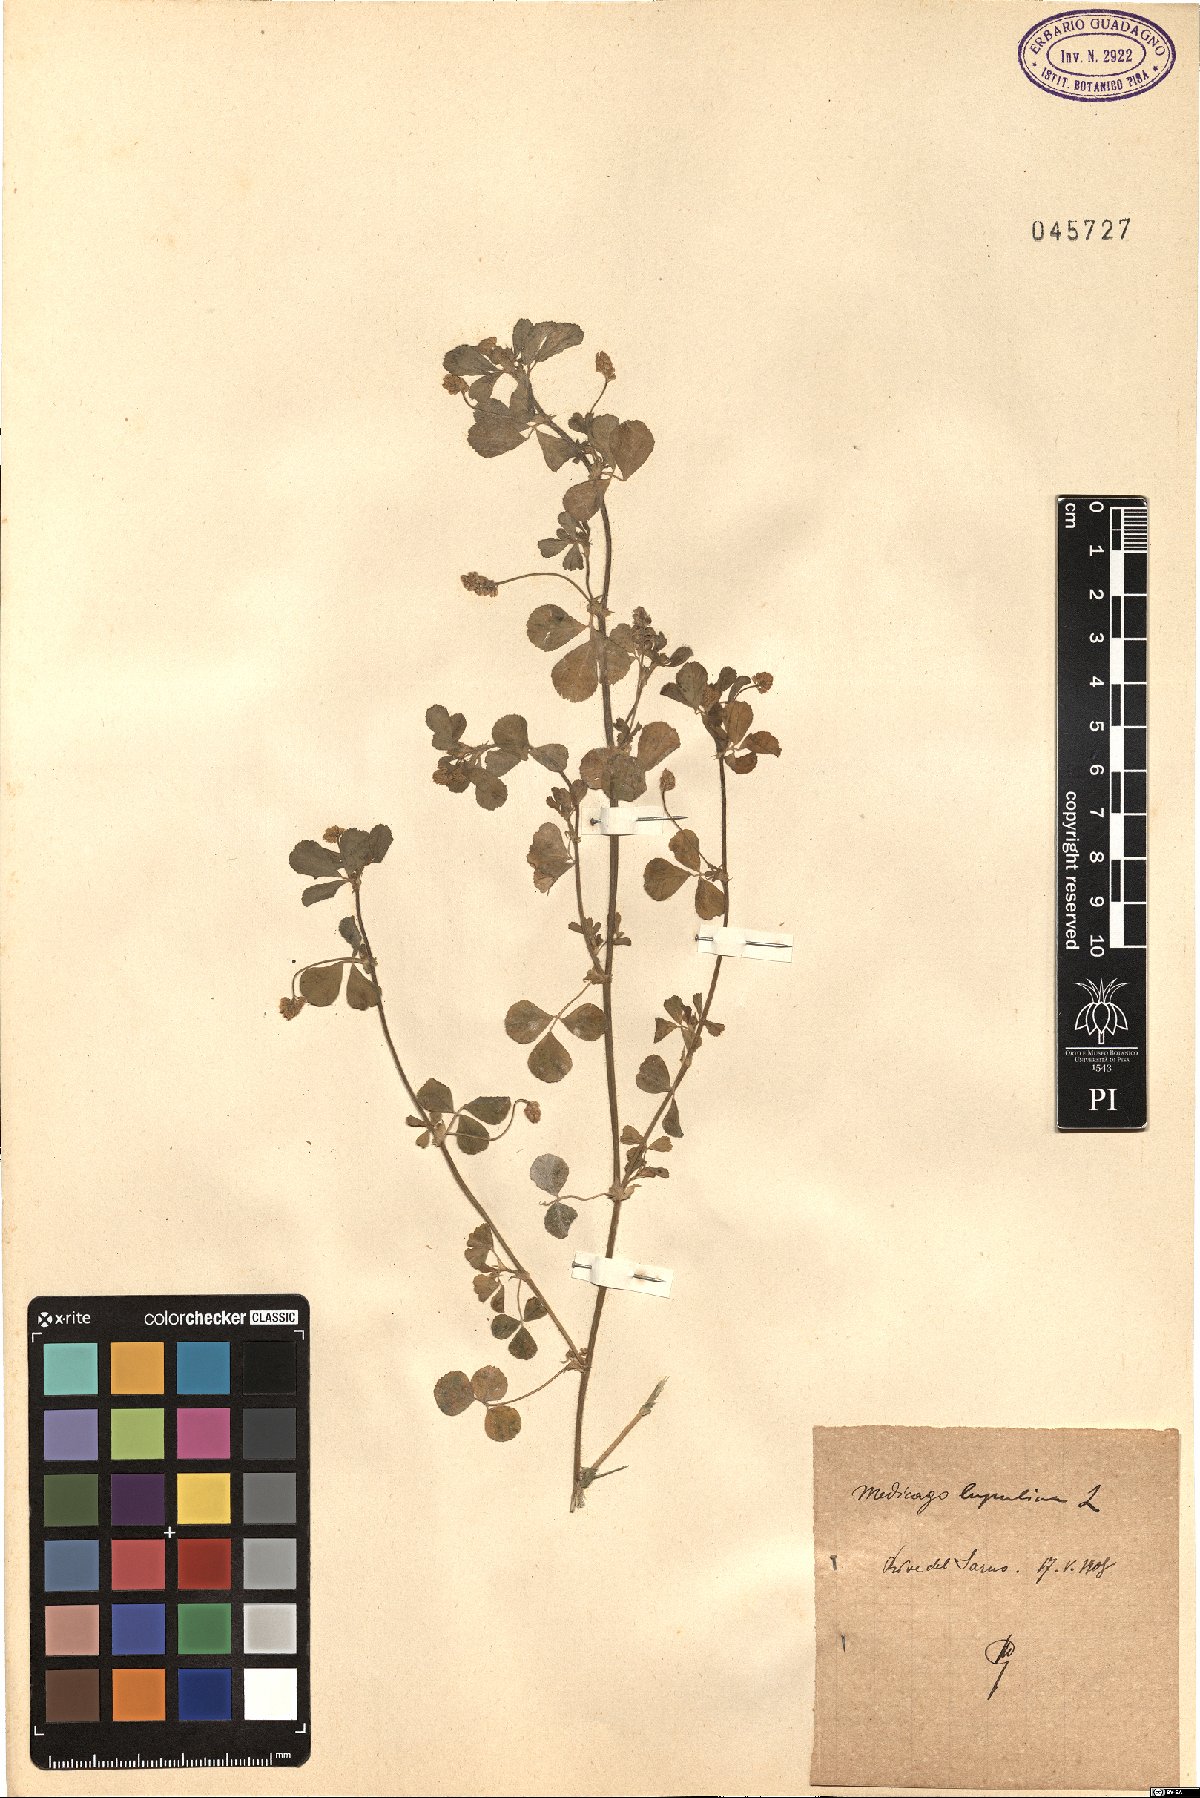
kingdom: Plantae
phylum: Tracheophyta
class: Magnoliopsida
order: Fabales
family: Fabaceae
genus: Medicago
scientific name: Medicago lupulina
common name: Black medick
